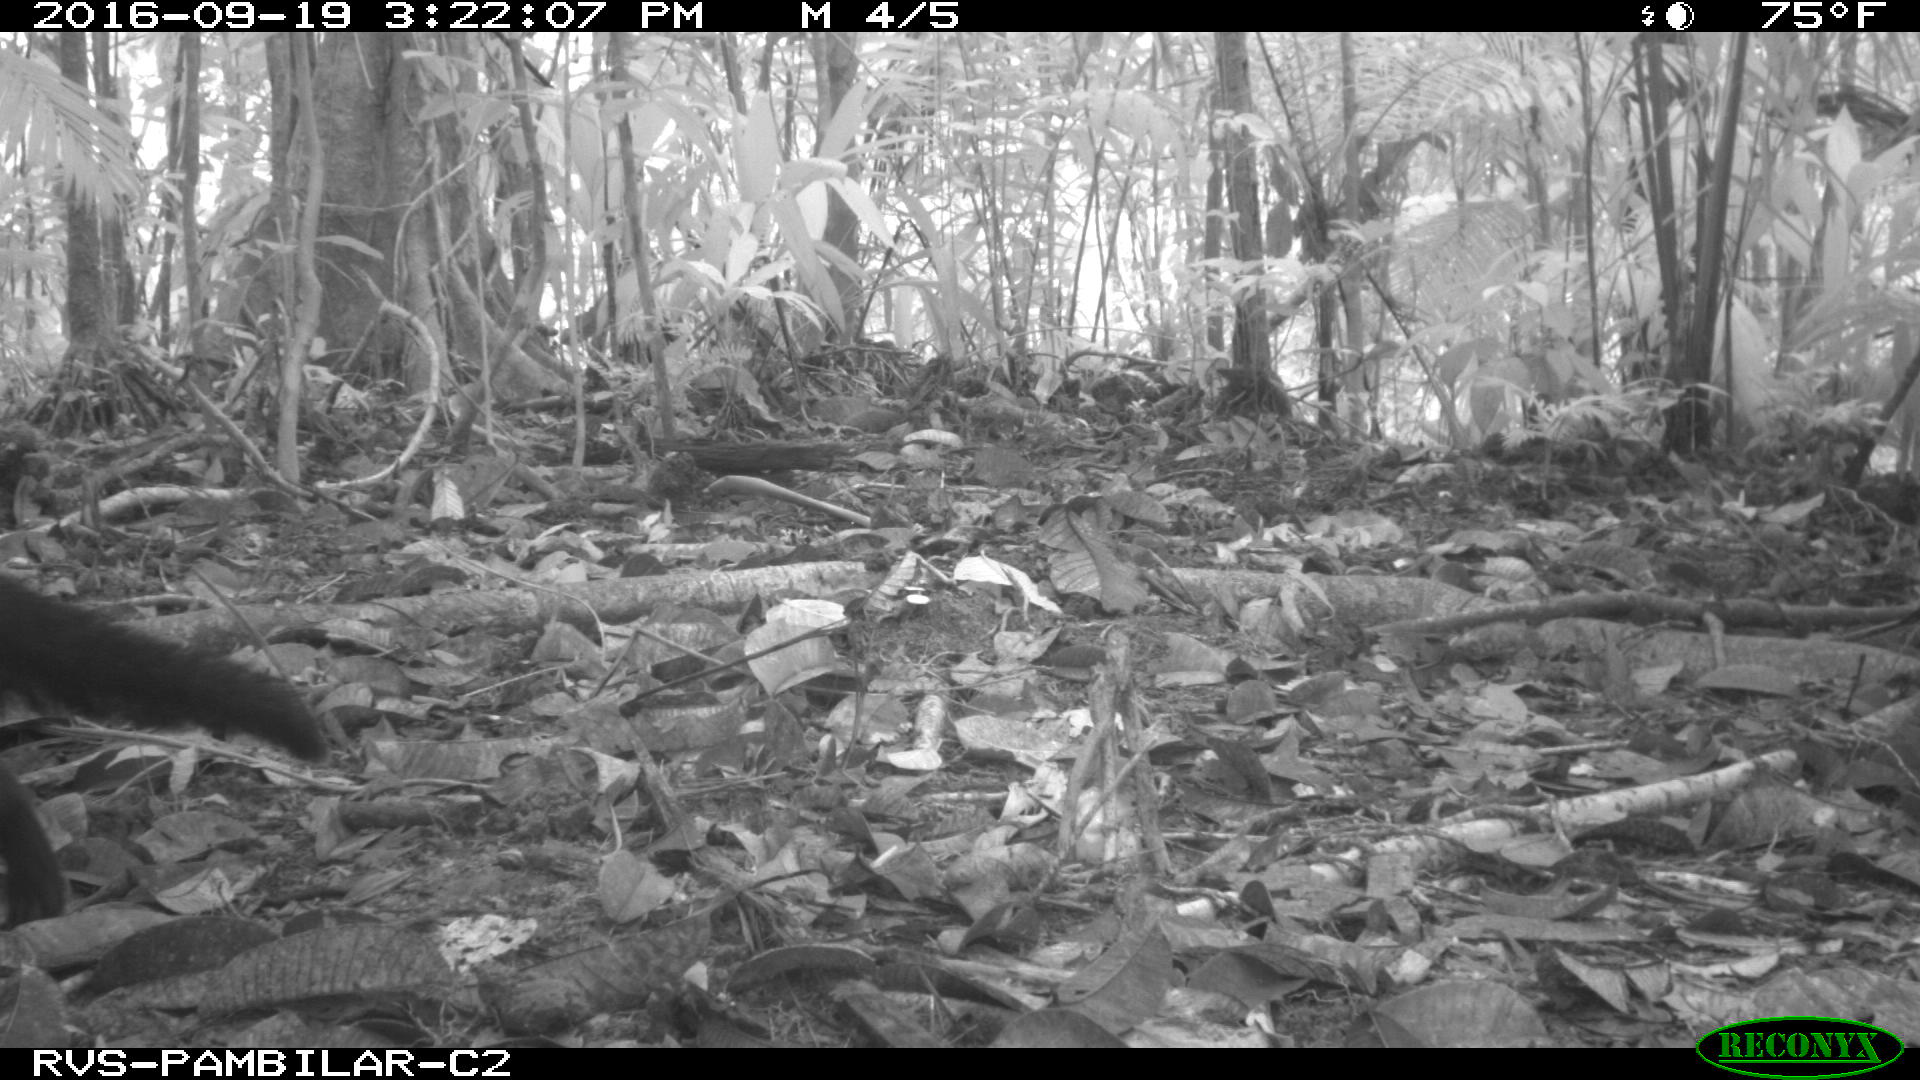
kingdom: Animalia
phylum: Chordata
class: Mammalia
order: Carnivora
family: Mustelidae
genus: Eira
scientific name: Eira barbara
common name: Tayra
